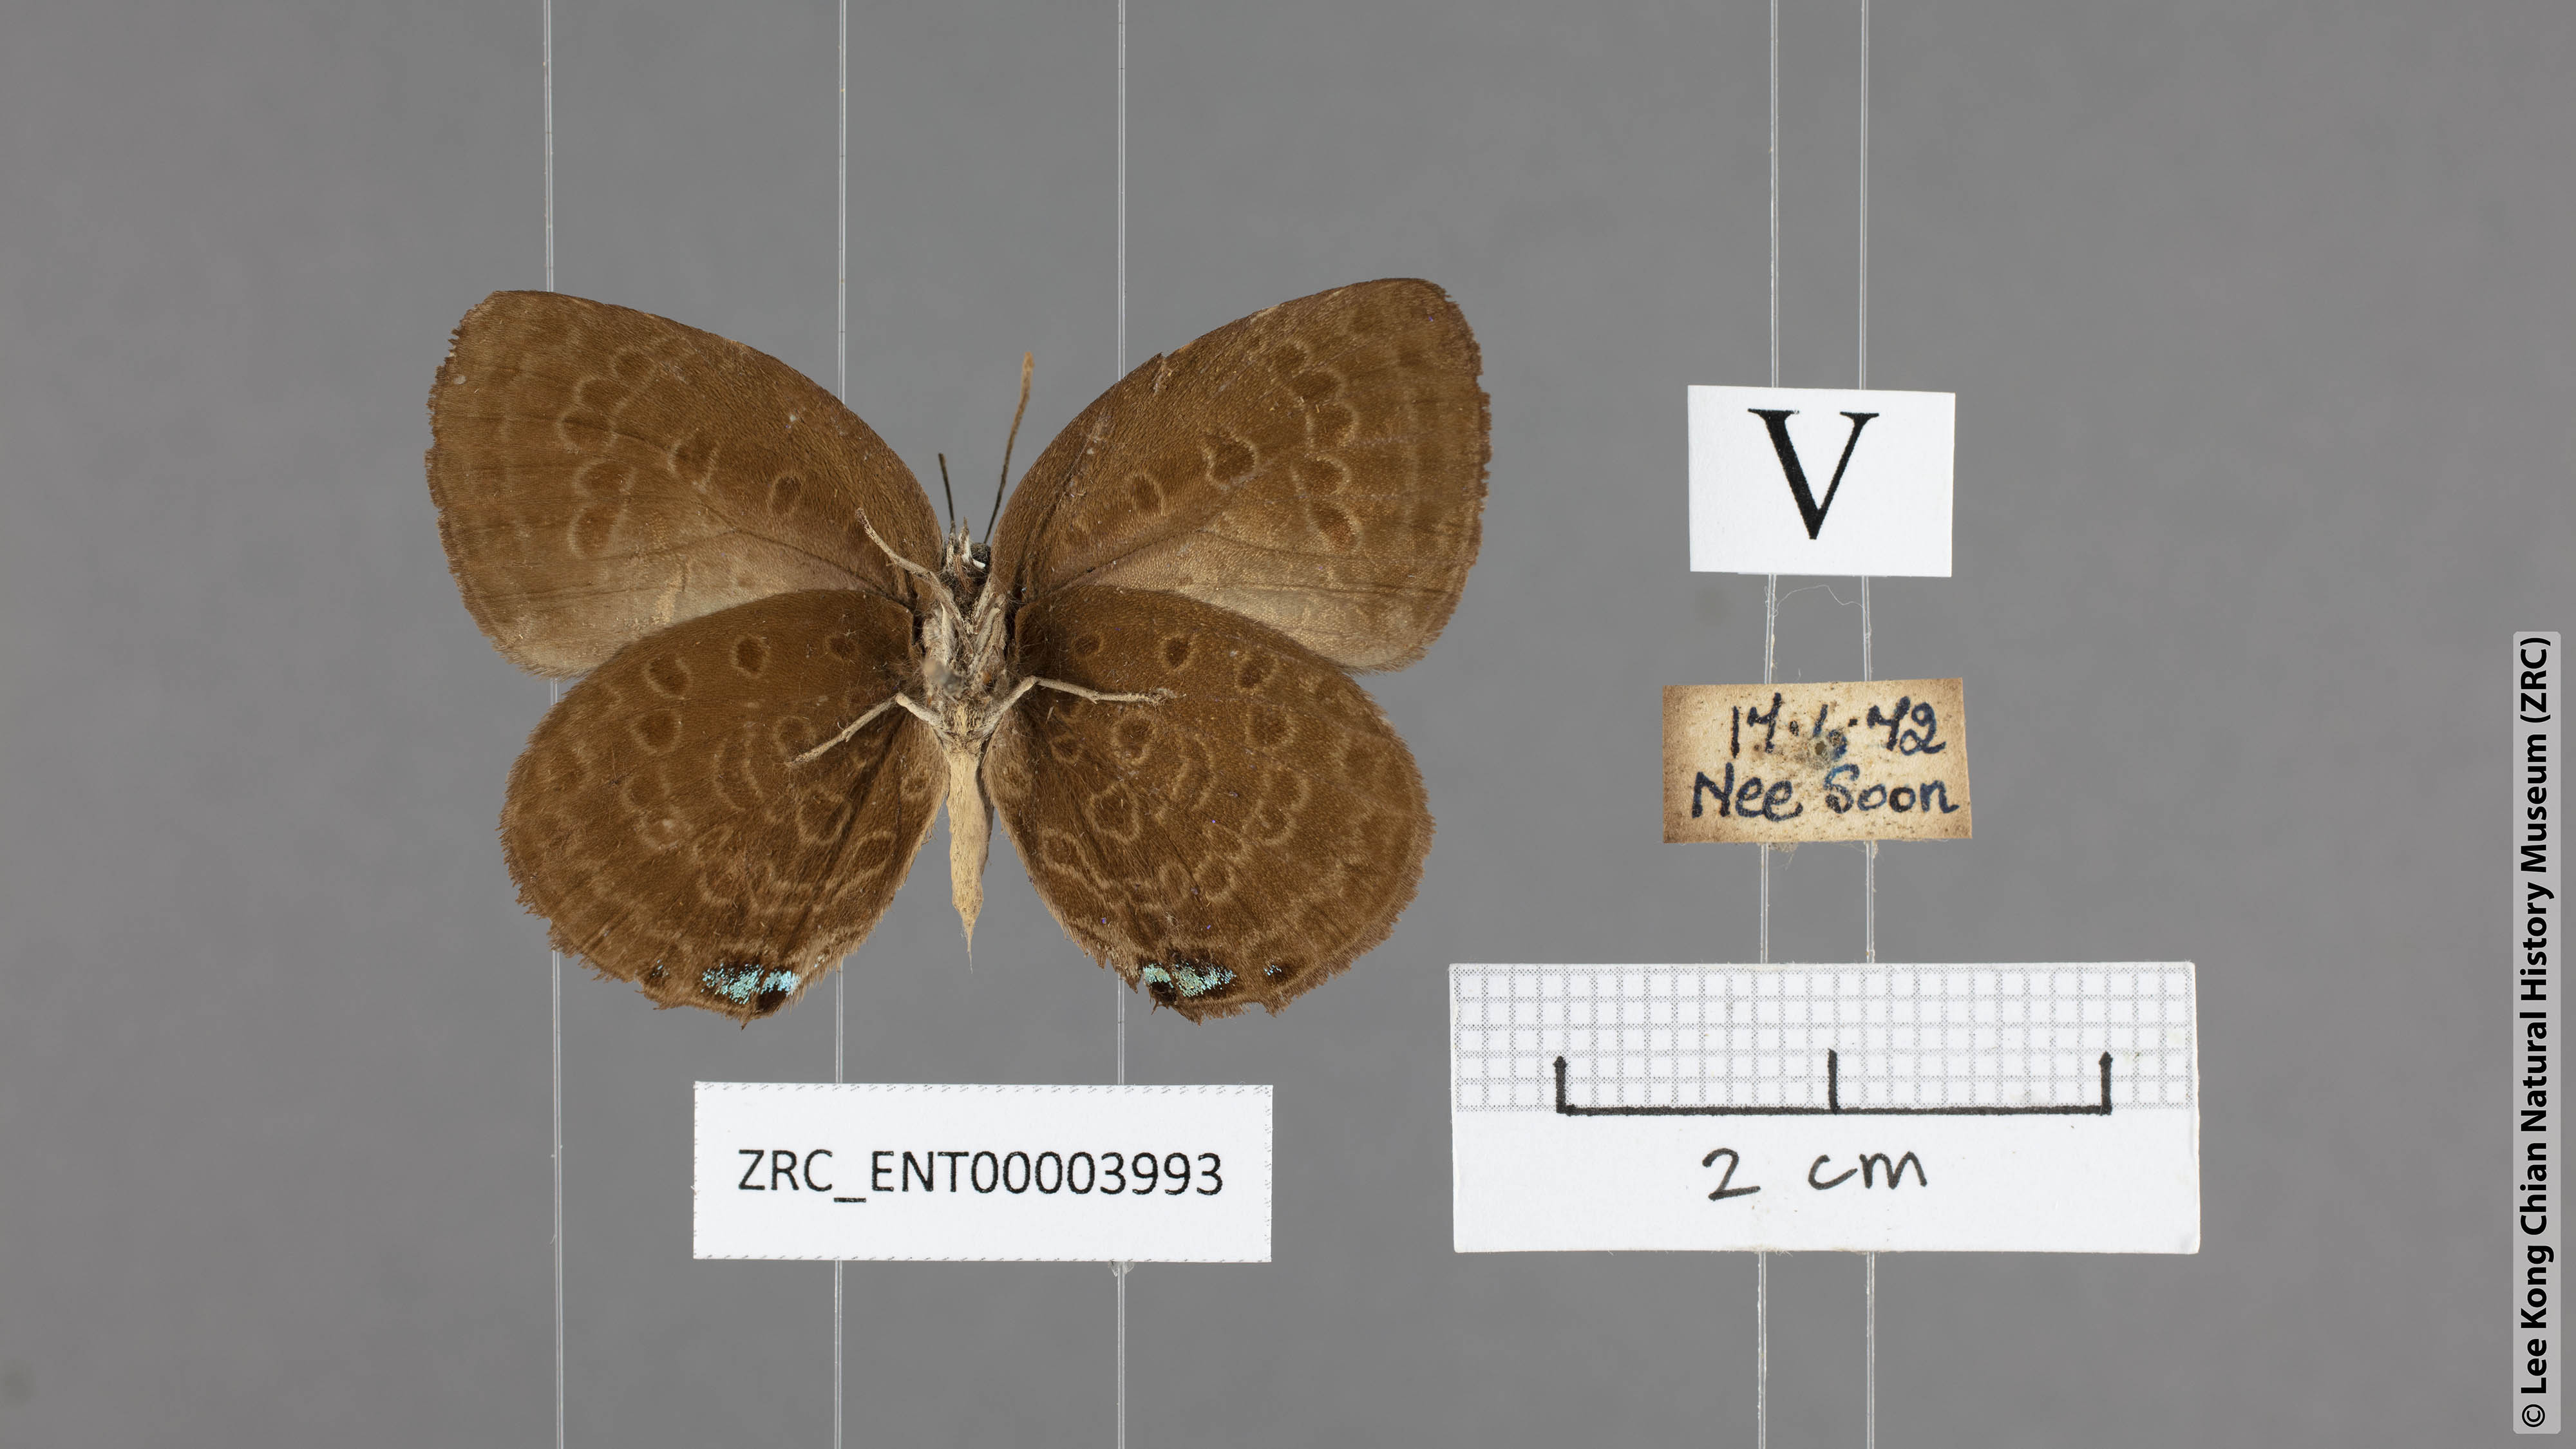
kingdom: Animalia
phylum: Arthropoda
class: Insecta
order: Lepidoptera
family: Lycaenidae
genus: Arhopala
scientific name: Arhopala major
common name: Major yellow oakblue
